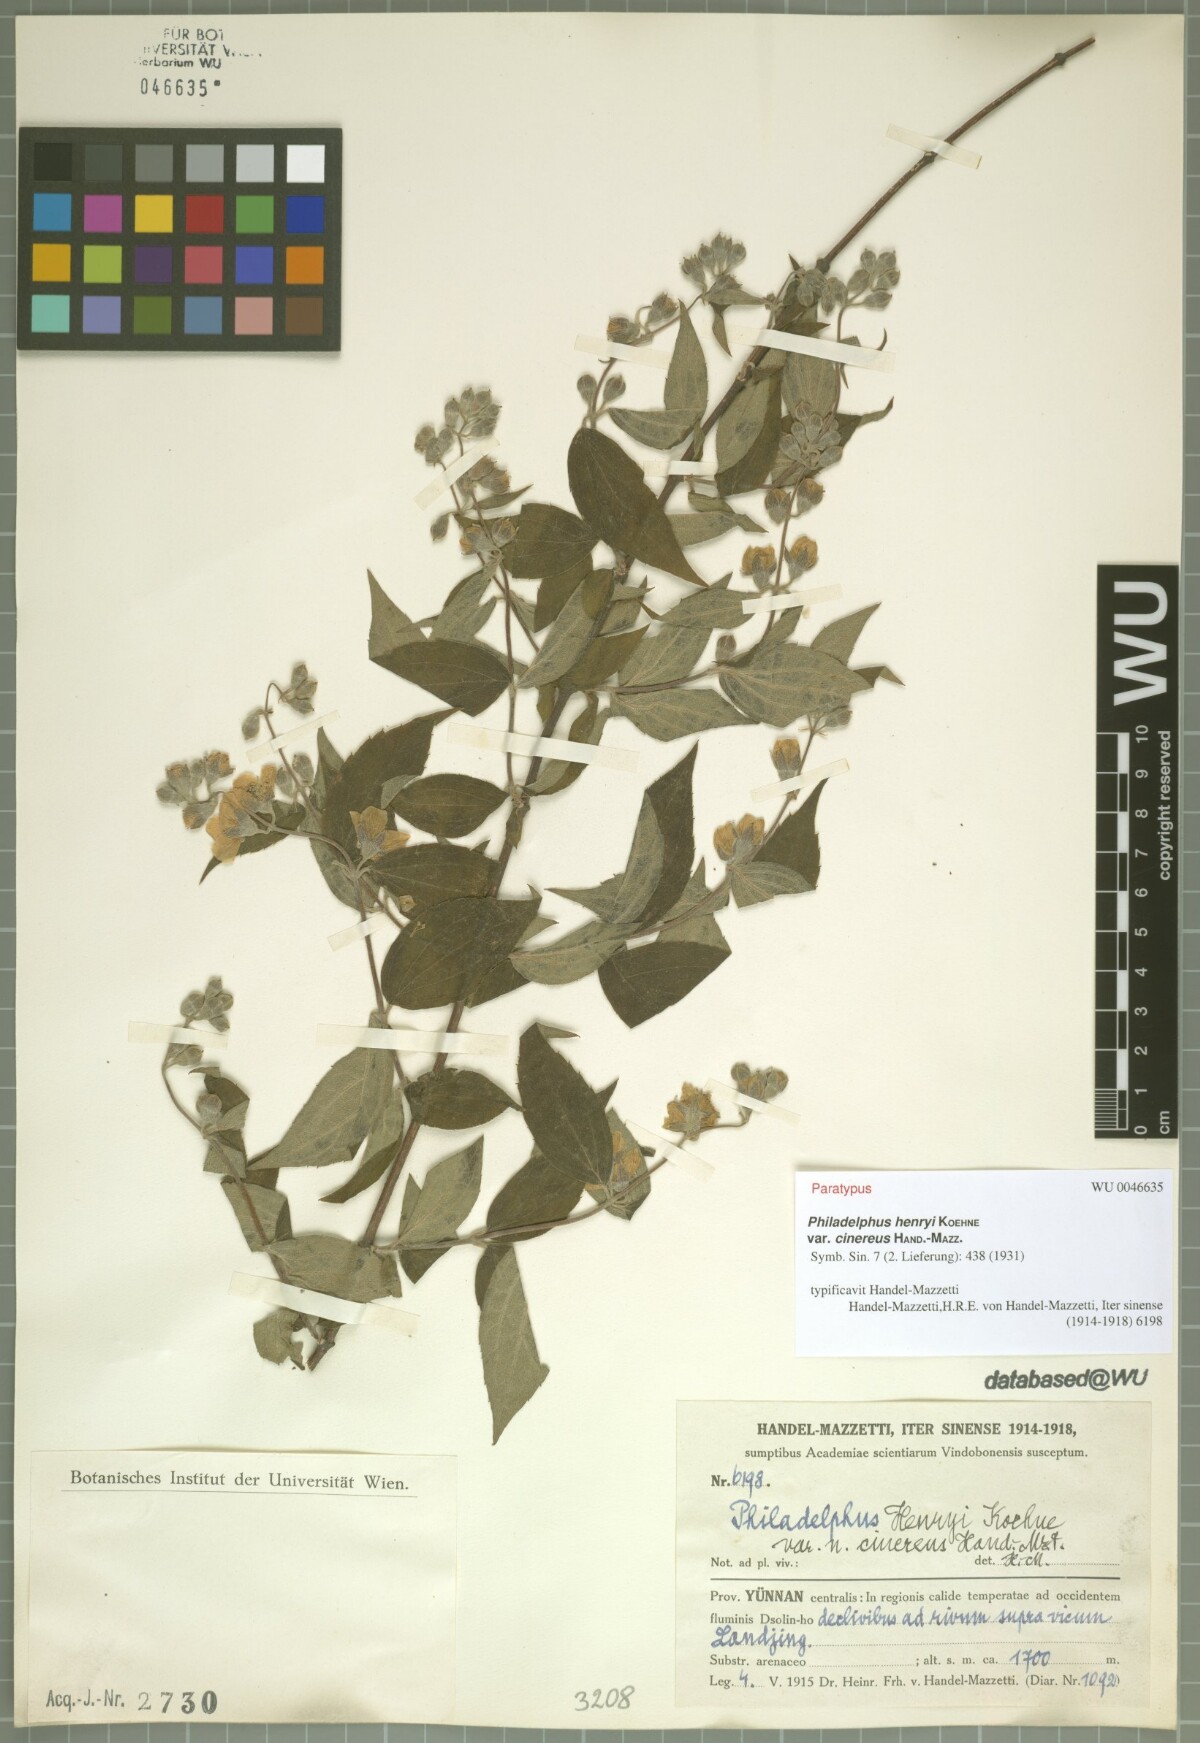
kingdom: Plantae
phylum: Tracheophyta
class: Magnoliopsida
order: Cornales
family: Hydrangeaceae
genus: Philadelphus
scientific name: Philadelphus henryi
